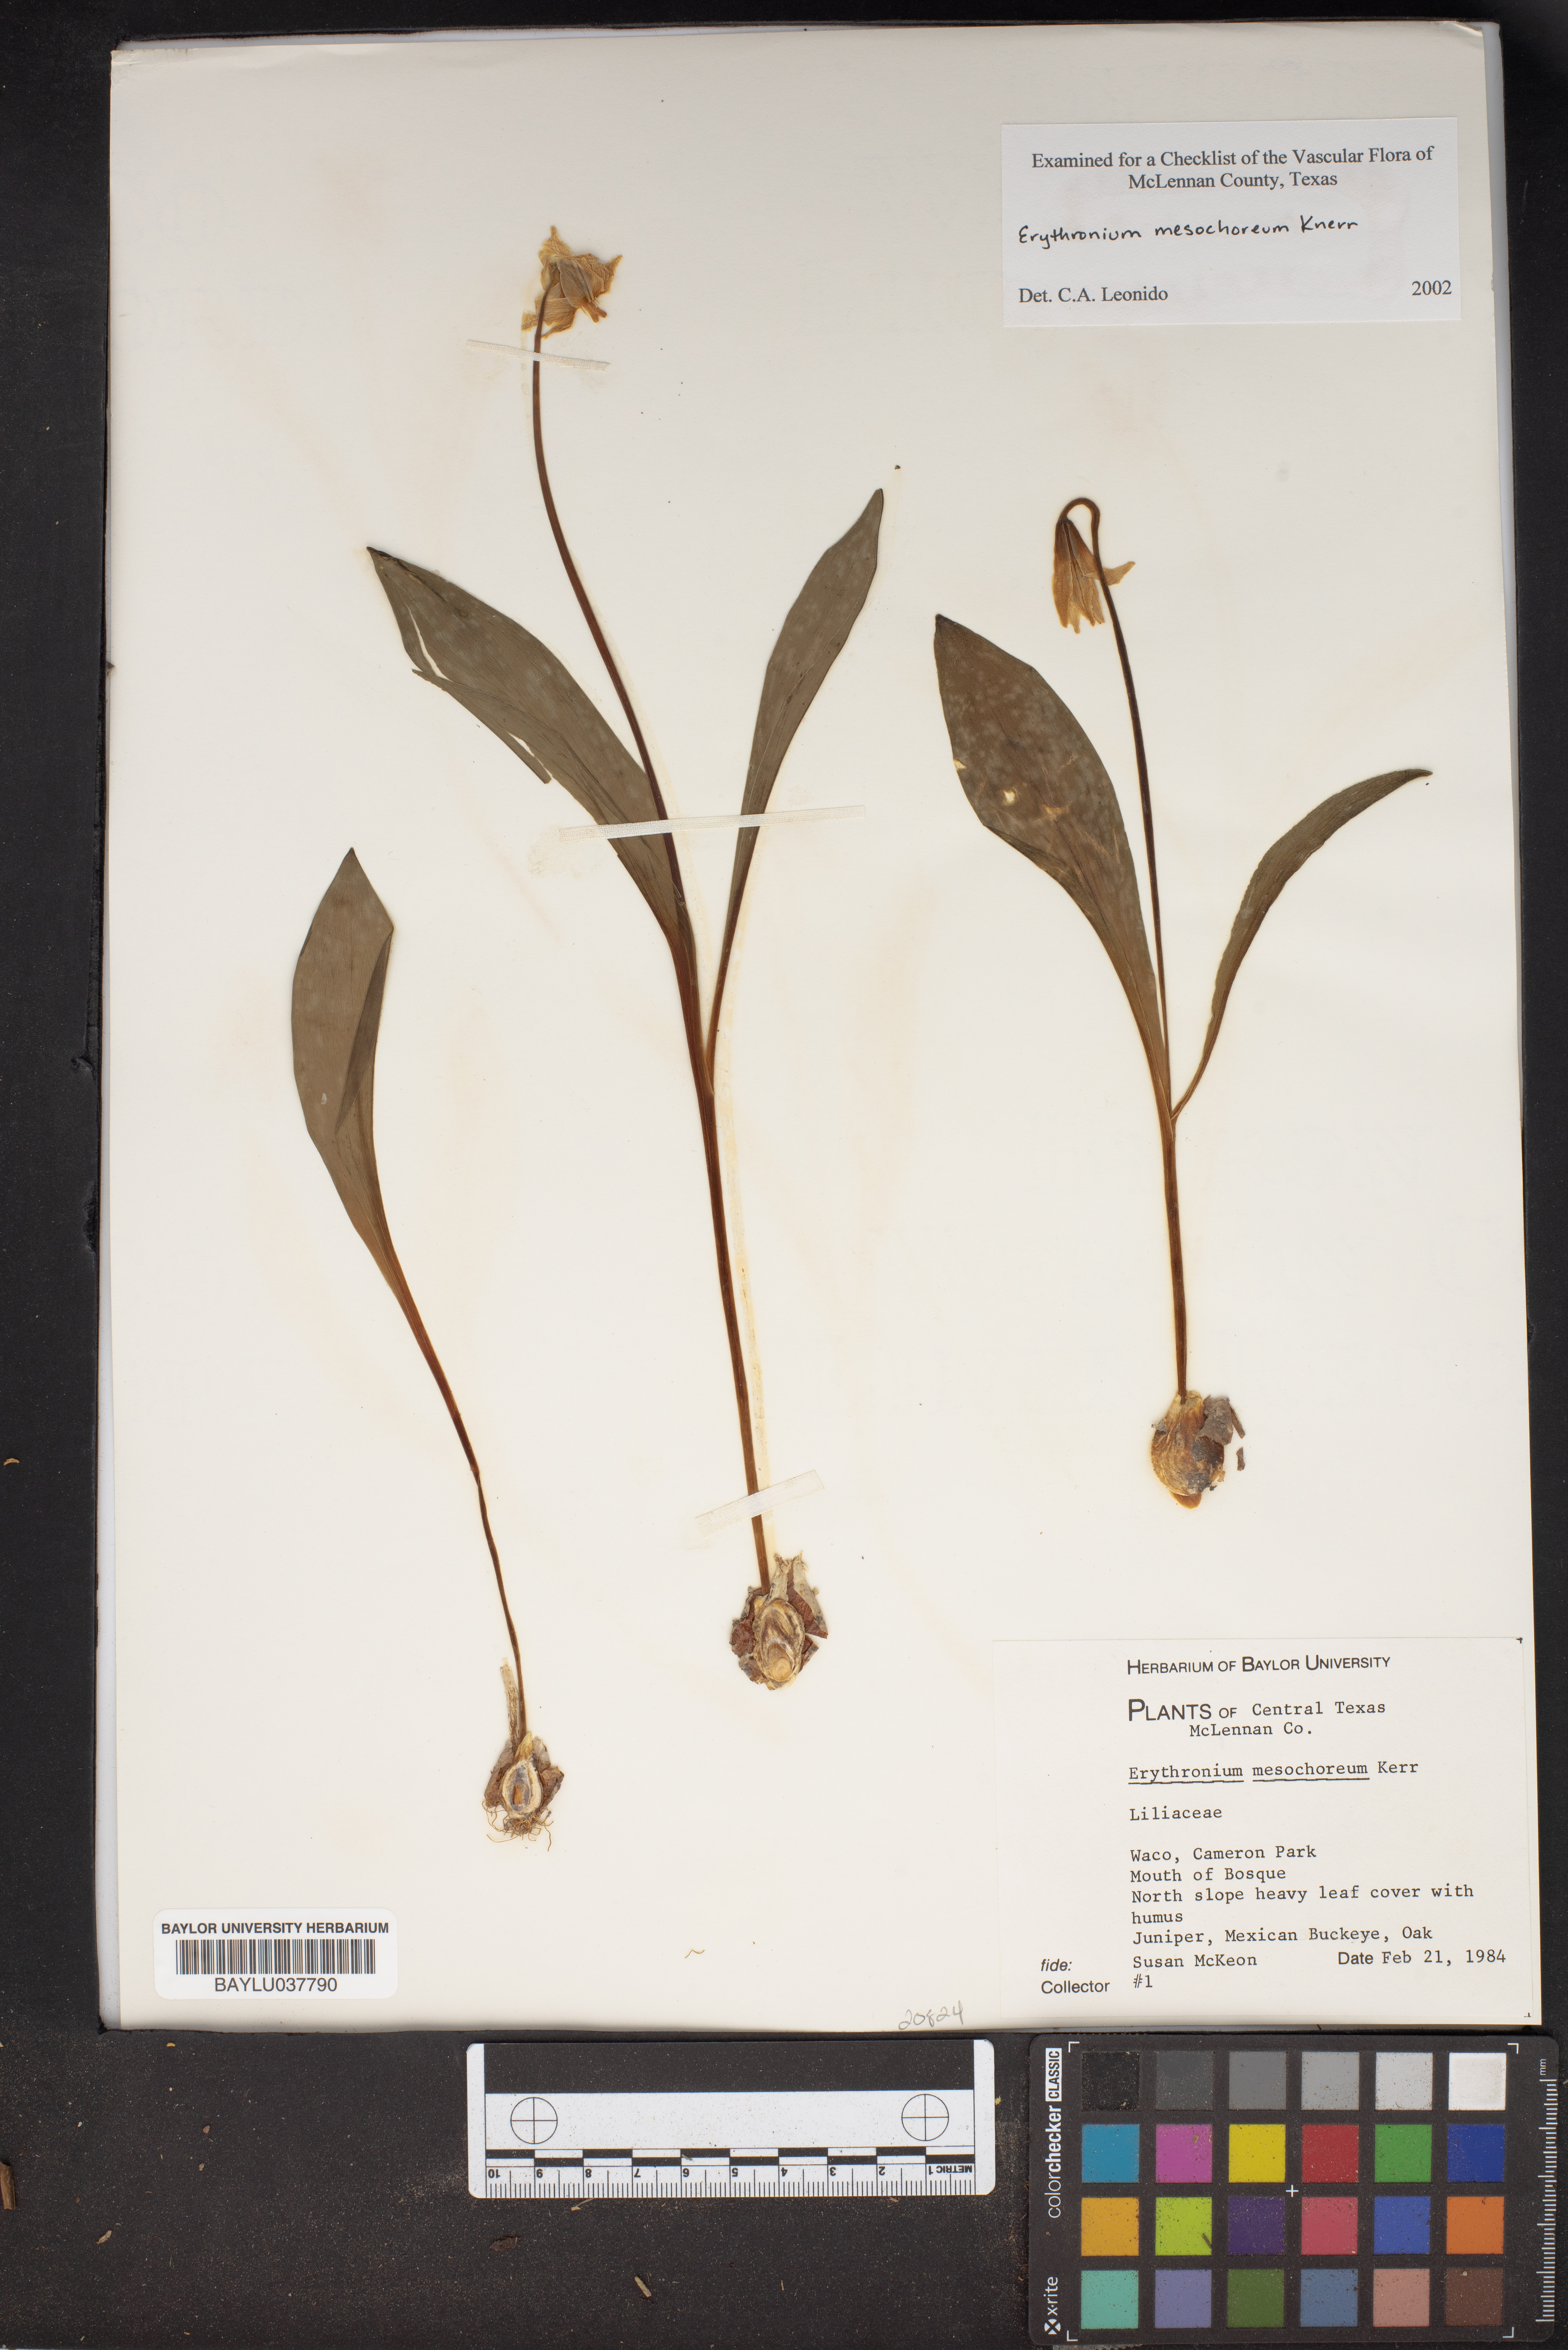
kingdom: Plantae
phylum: Tracheophyta
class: Liliopsida
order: Liliales
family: Liliaceae
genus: Erythronium
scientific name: Erythronium mesochoreum
